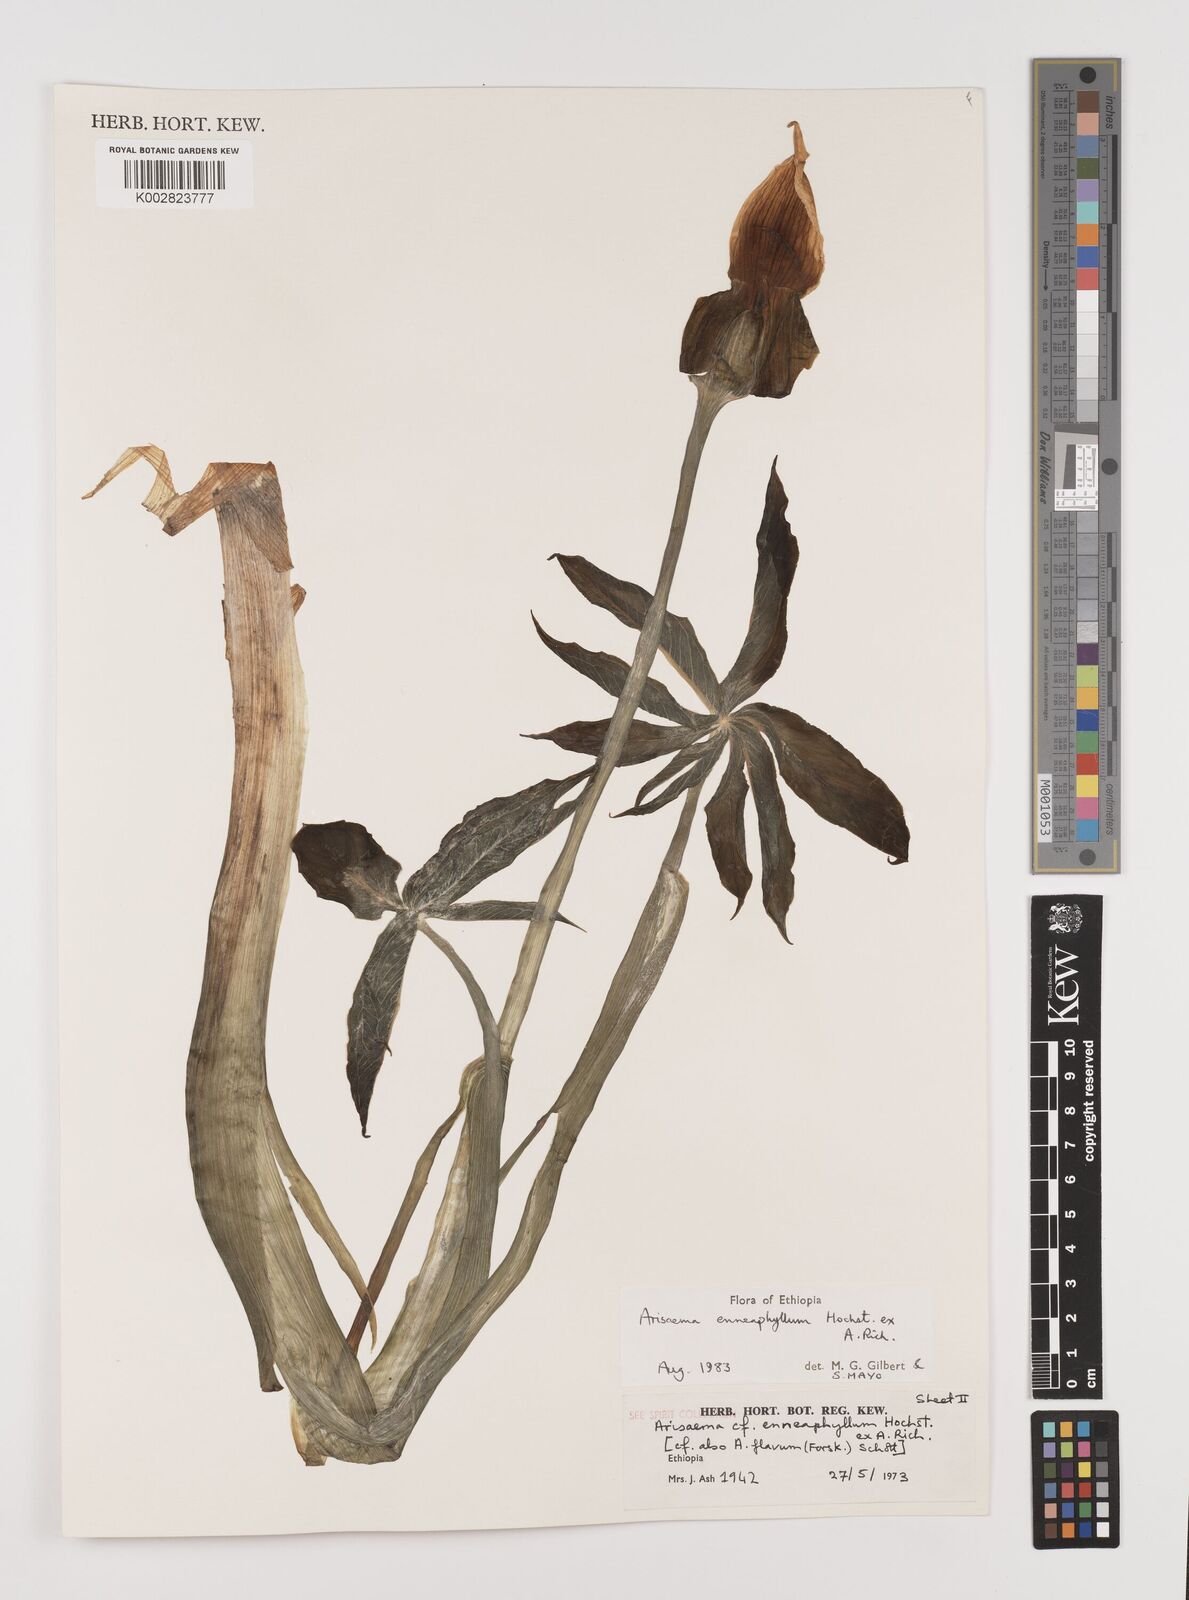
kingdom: Plantae
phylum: Tracheophyta
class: Liliopsida
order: Alismatales
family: Araceae
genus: Arisaema
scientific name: Arisaema enneaphyllum
